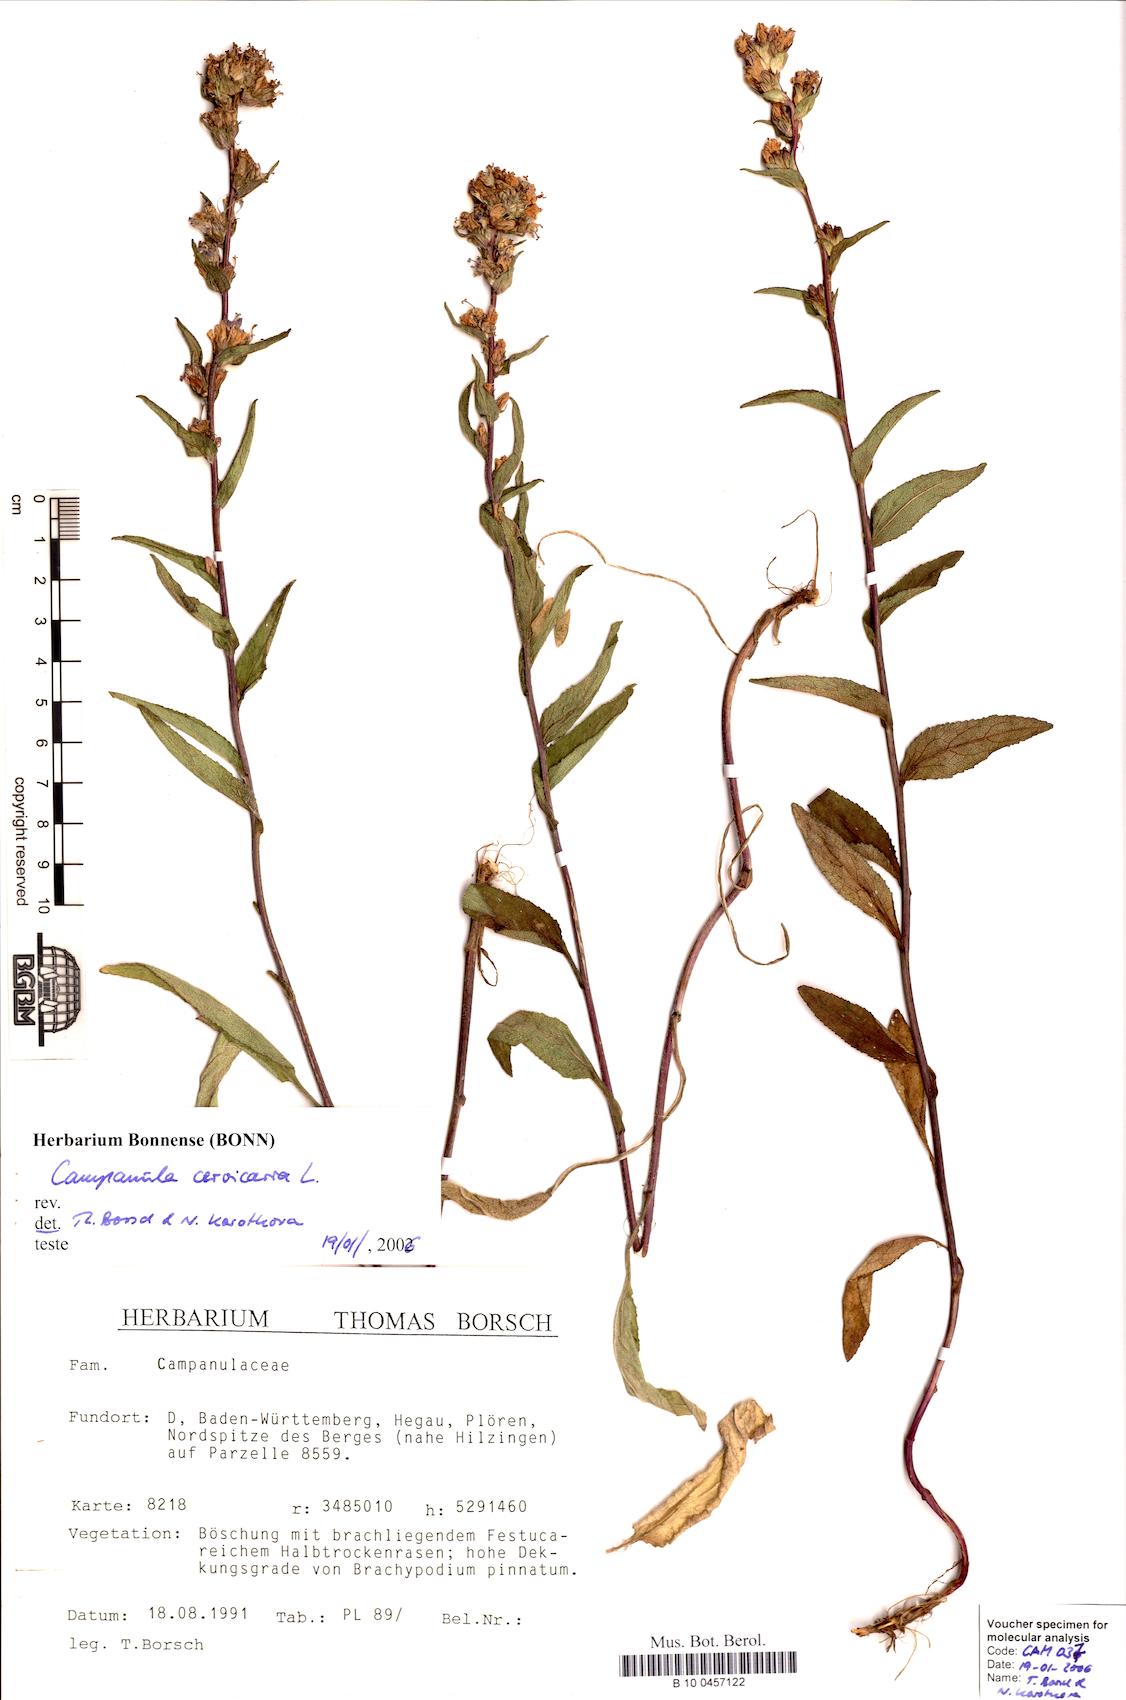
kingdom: Plantae
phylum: Tracheophyta
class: Magnoliopsida
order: Asterales
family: Campanulaceae
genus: Campanula
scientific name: Campanula cervicaria
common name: Bristly bellflower
